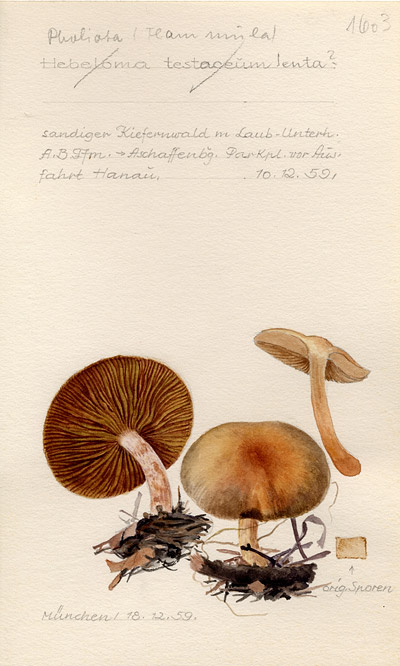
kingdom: Fungi
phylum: Basidiomycota
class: Agaricomycetes
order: Agaricales
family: Strophariaceae
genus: Pholiota
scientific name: Pholiota flammans
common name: Flaming scalycap
